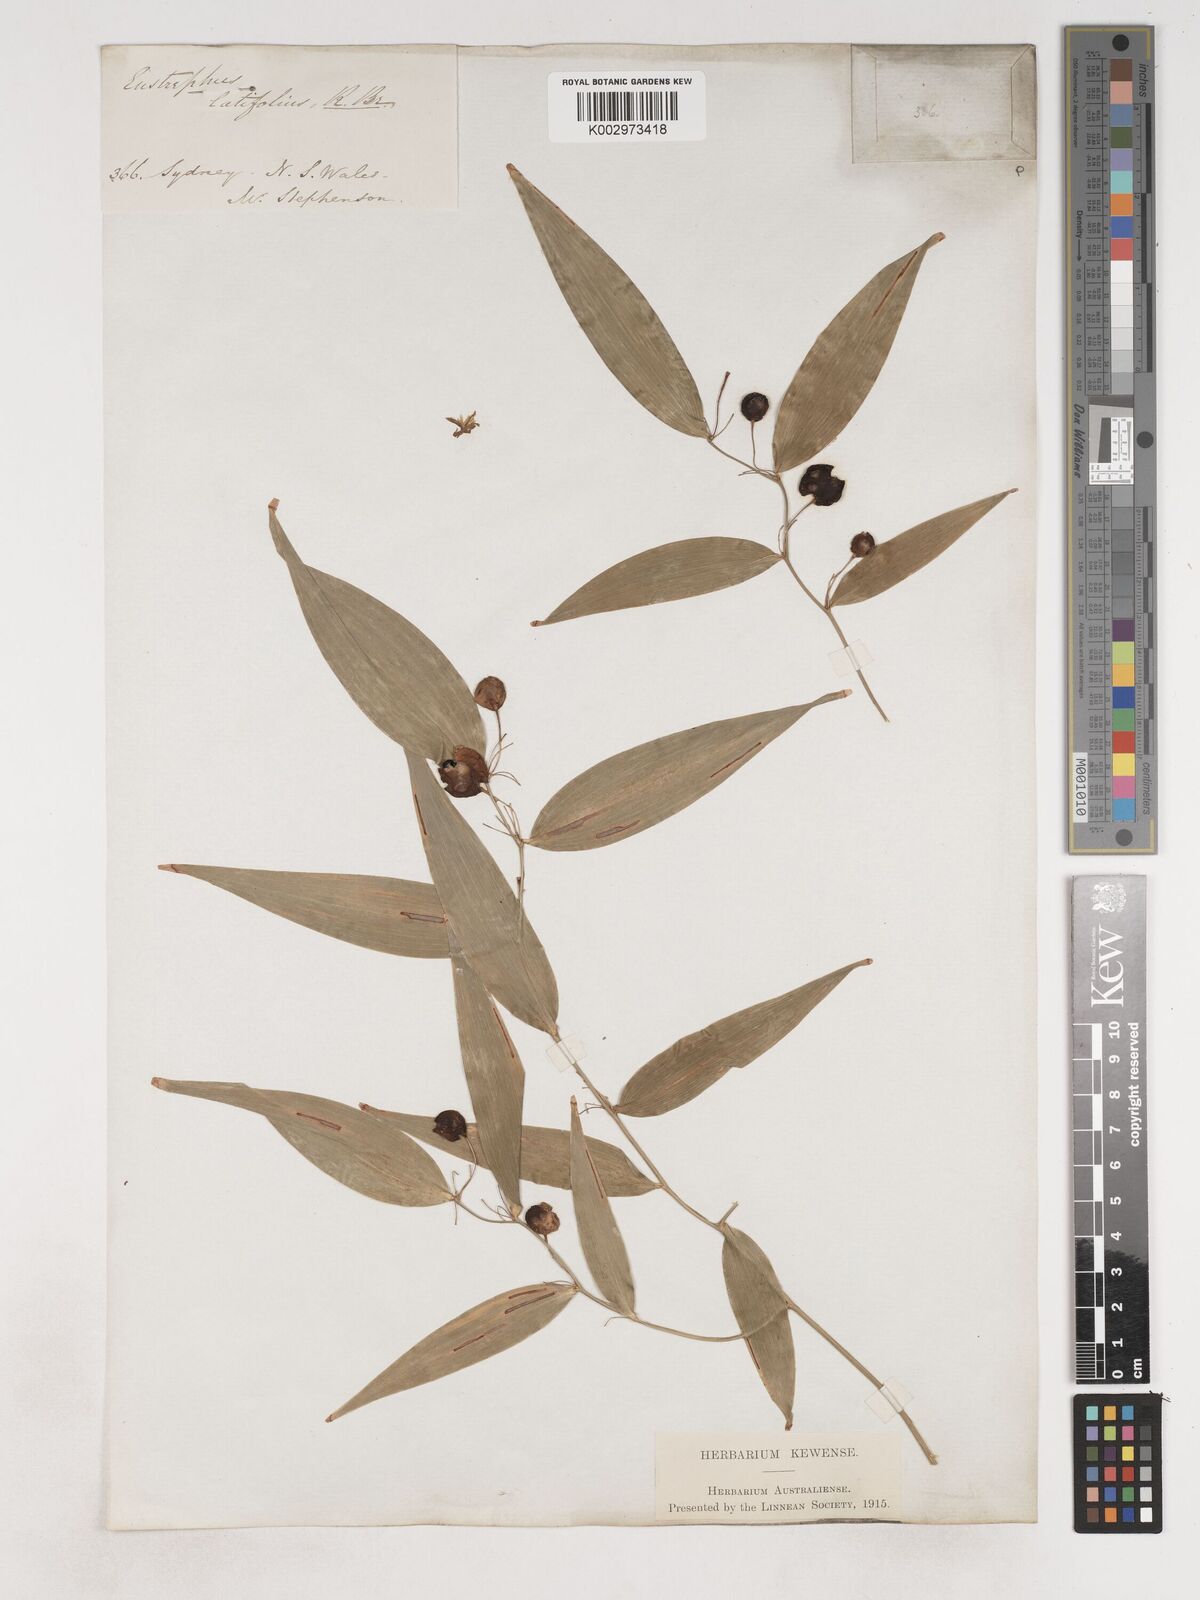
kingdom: Plantae
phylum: Tracheophyta
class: Liliopsida
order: Asparagales
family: Asparagaceae
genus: Eustrephus
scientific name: Eustrephus latifolius
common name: Orangevine
